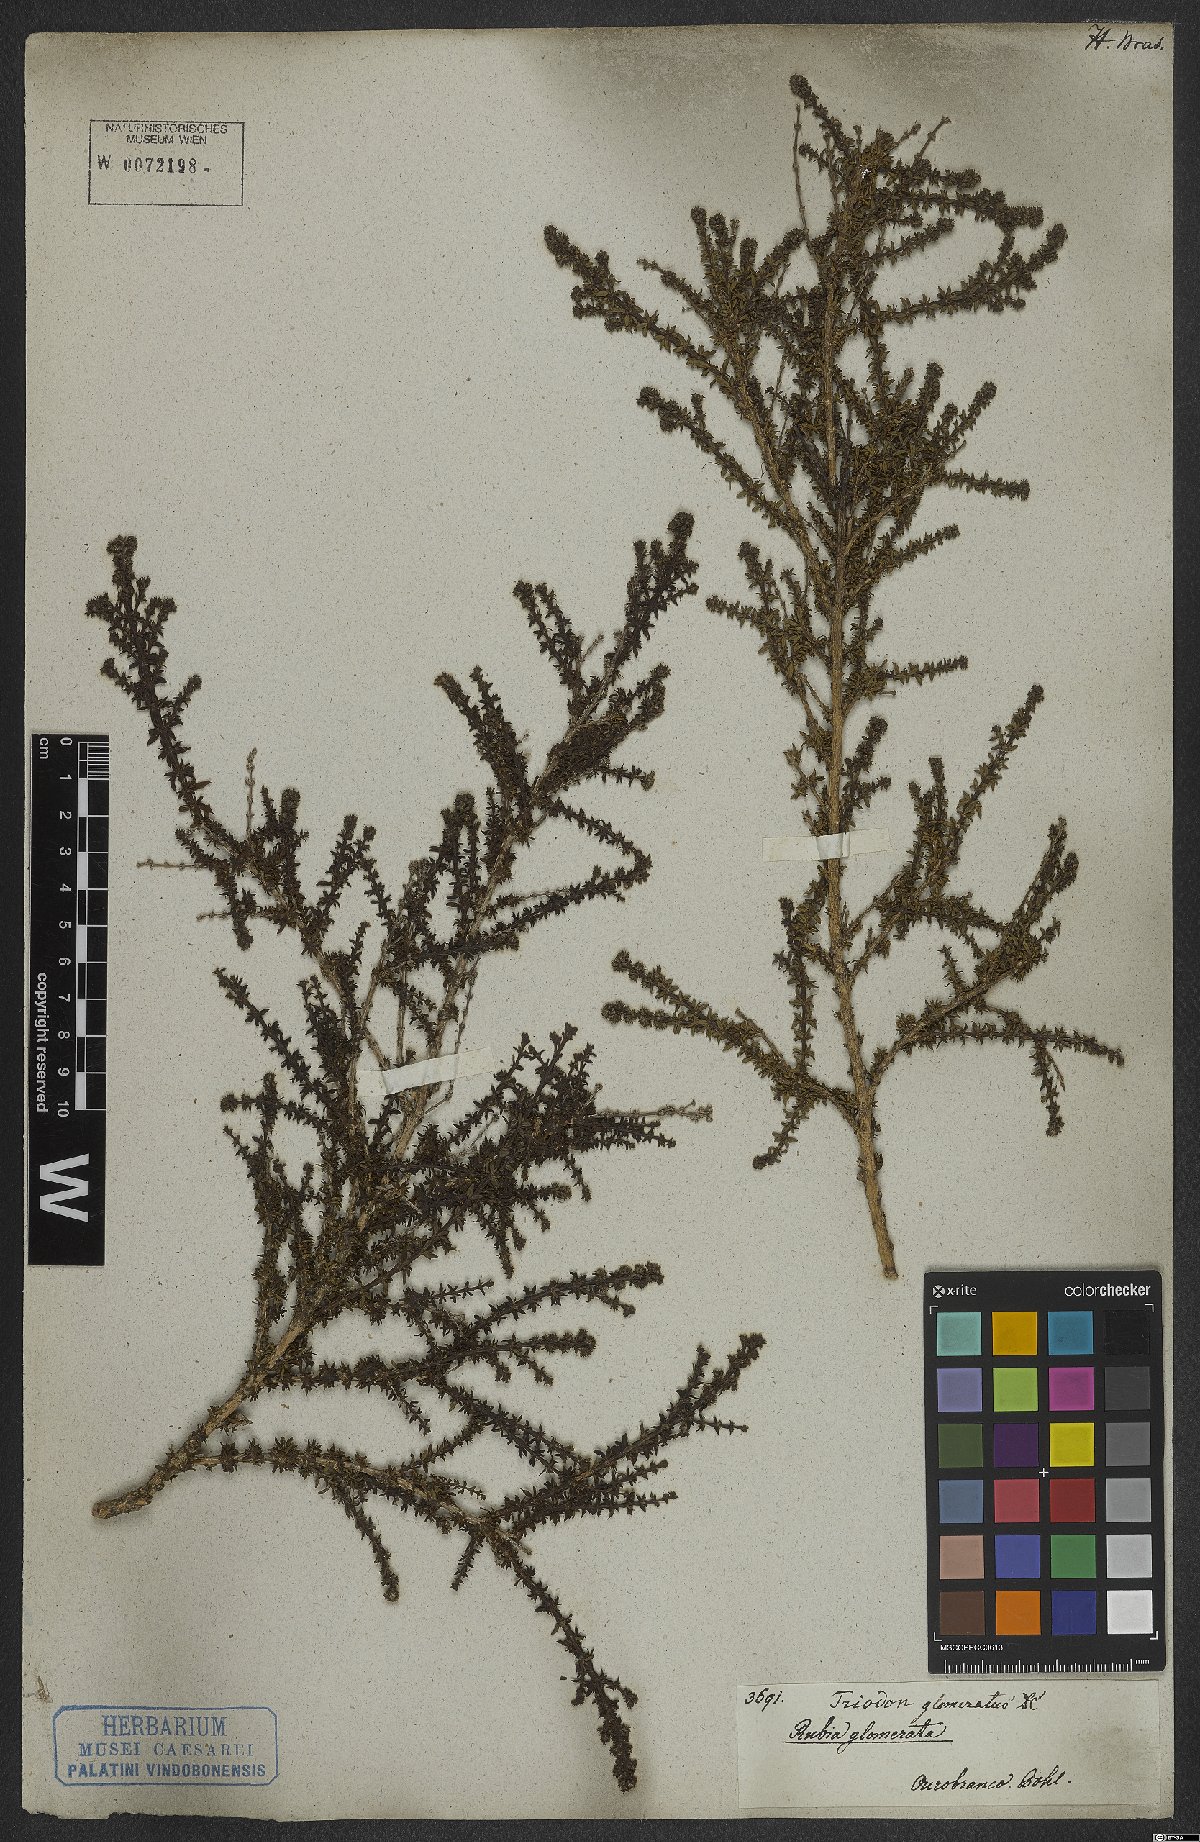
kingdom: Plantae
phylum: Tracheophyta
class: Magnoliopsida
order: Gentianales
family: Rubiaceae
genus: Galianthe
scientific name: Galianthe brasiliensis
